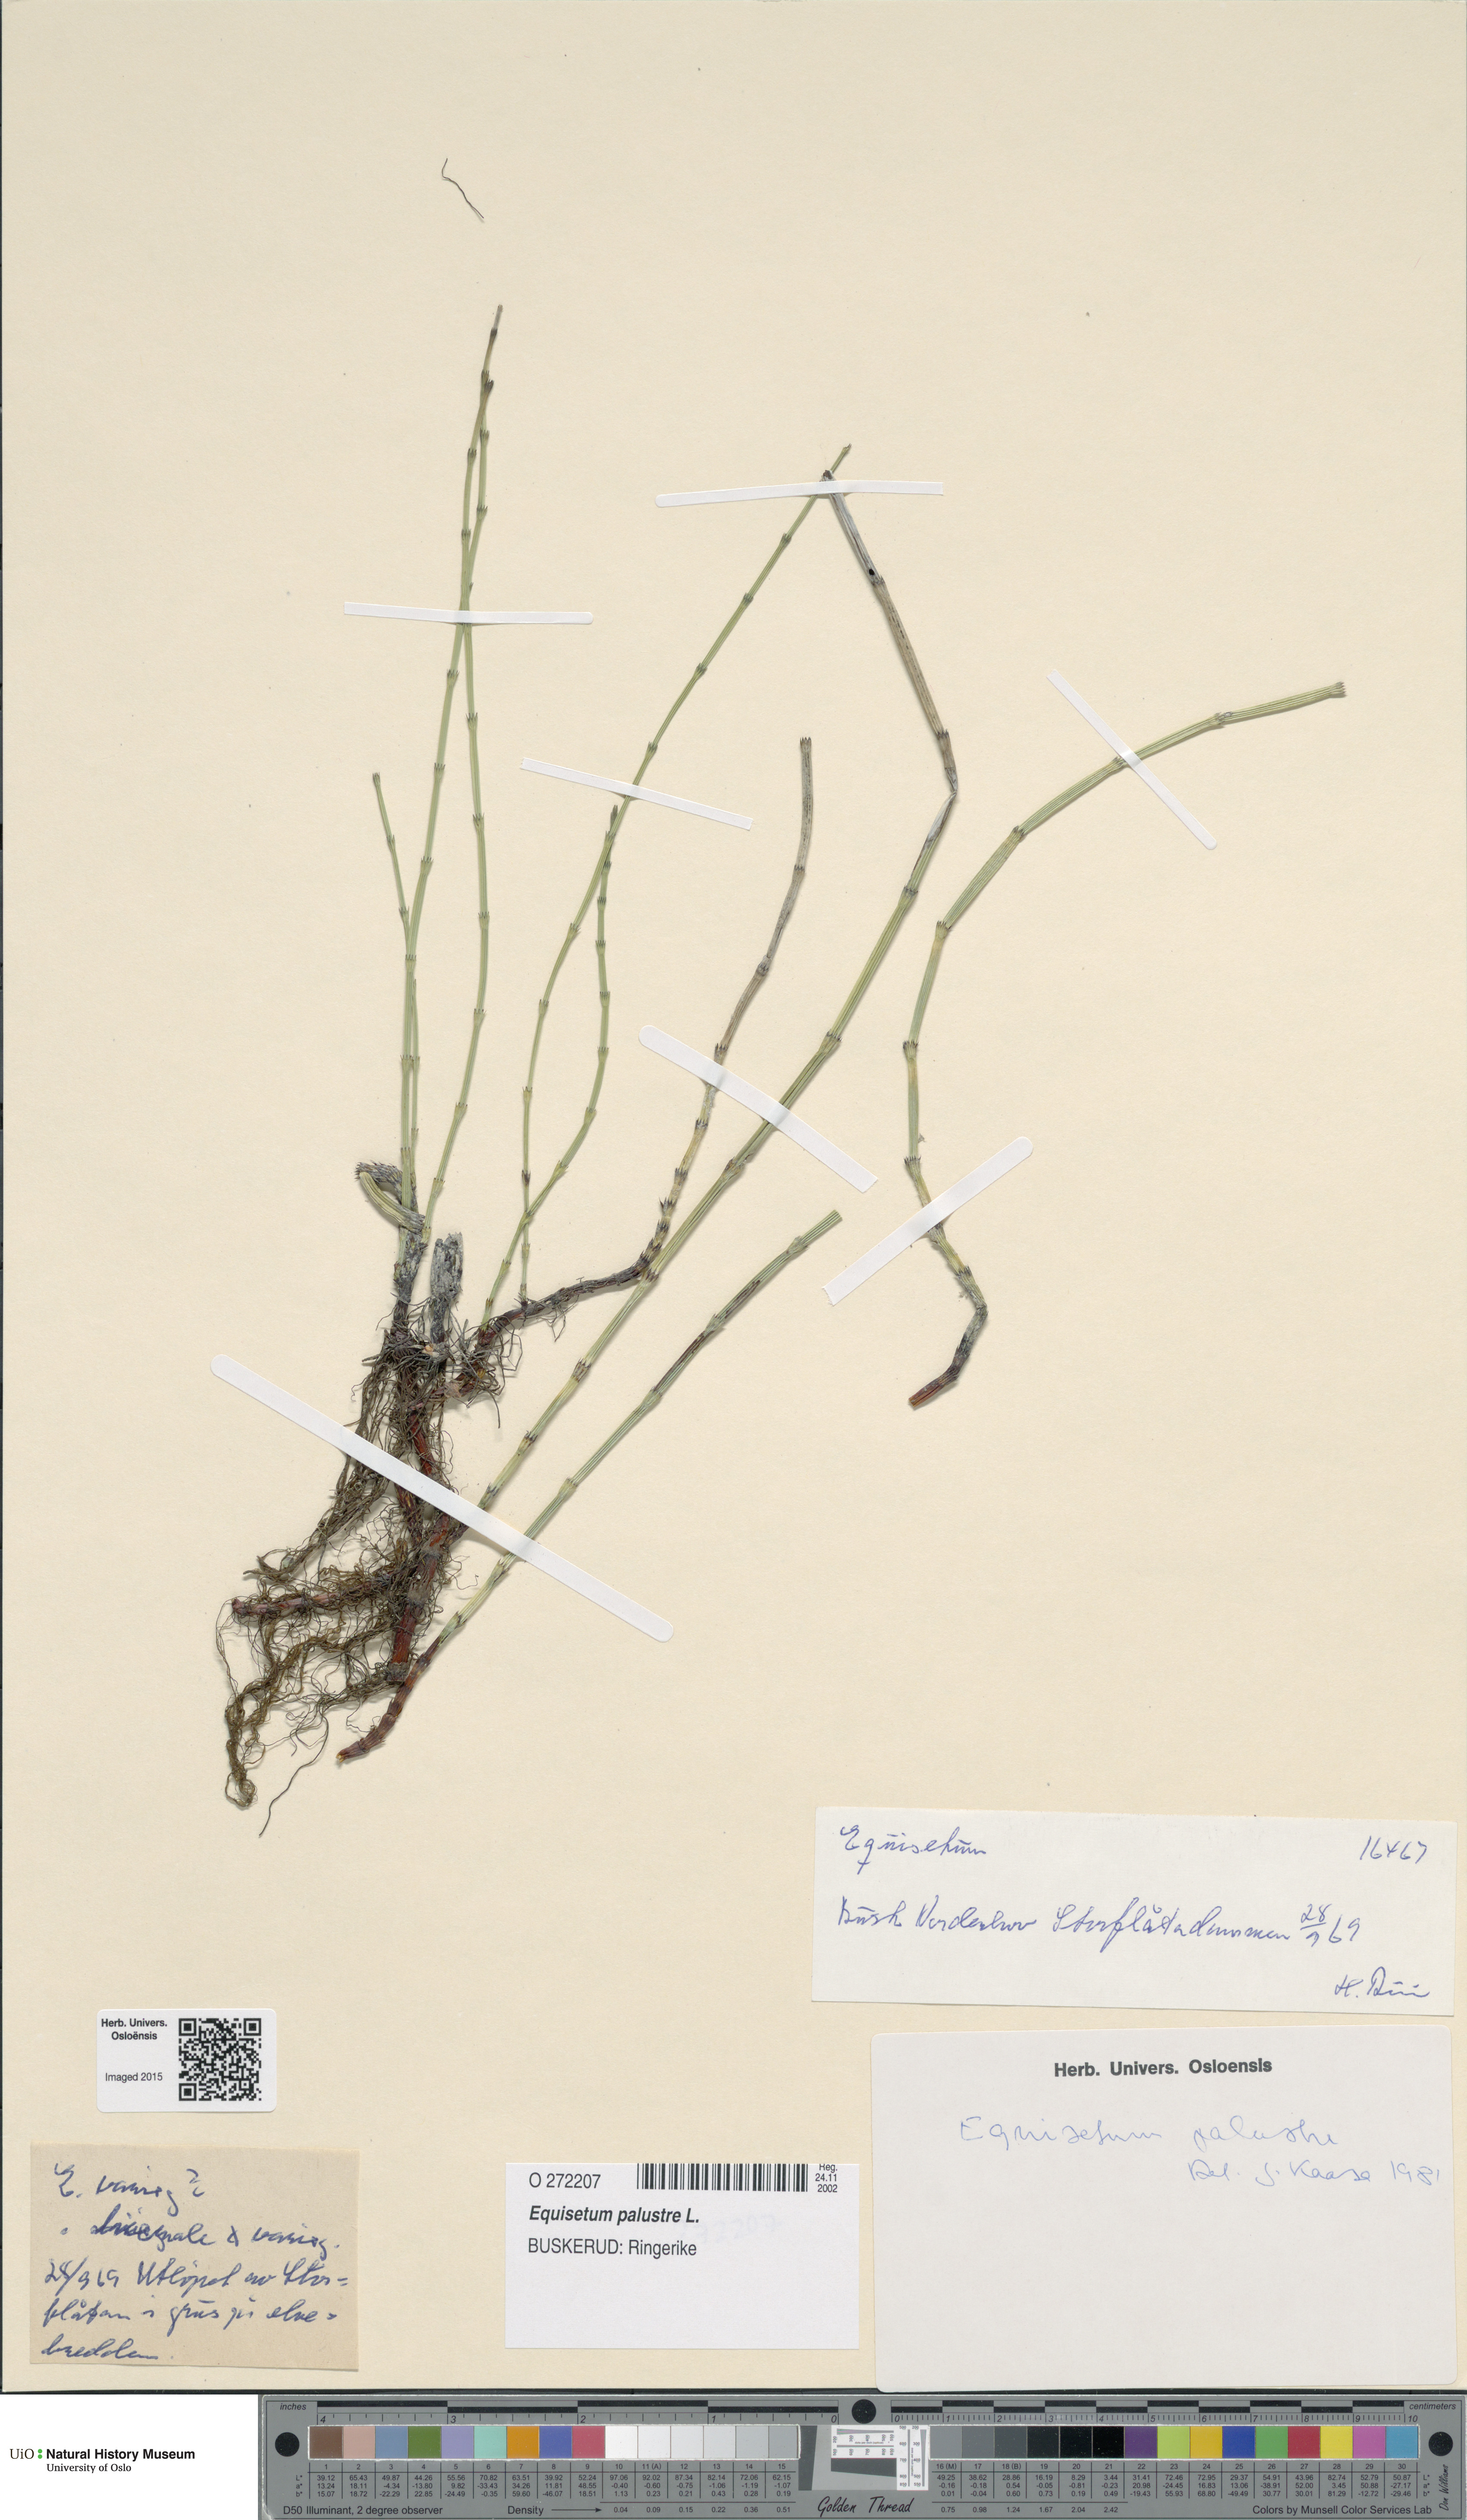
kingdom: Plantae
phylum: Tracheophyta
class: Polypodiopsida
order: Equisetales
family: Equisetaceae
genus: Equisetum
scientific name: Equisetum palustre
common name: Marsh horsetail
